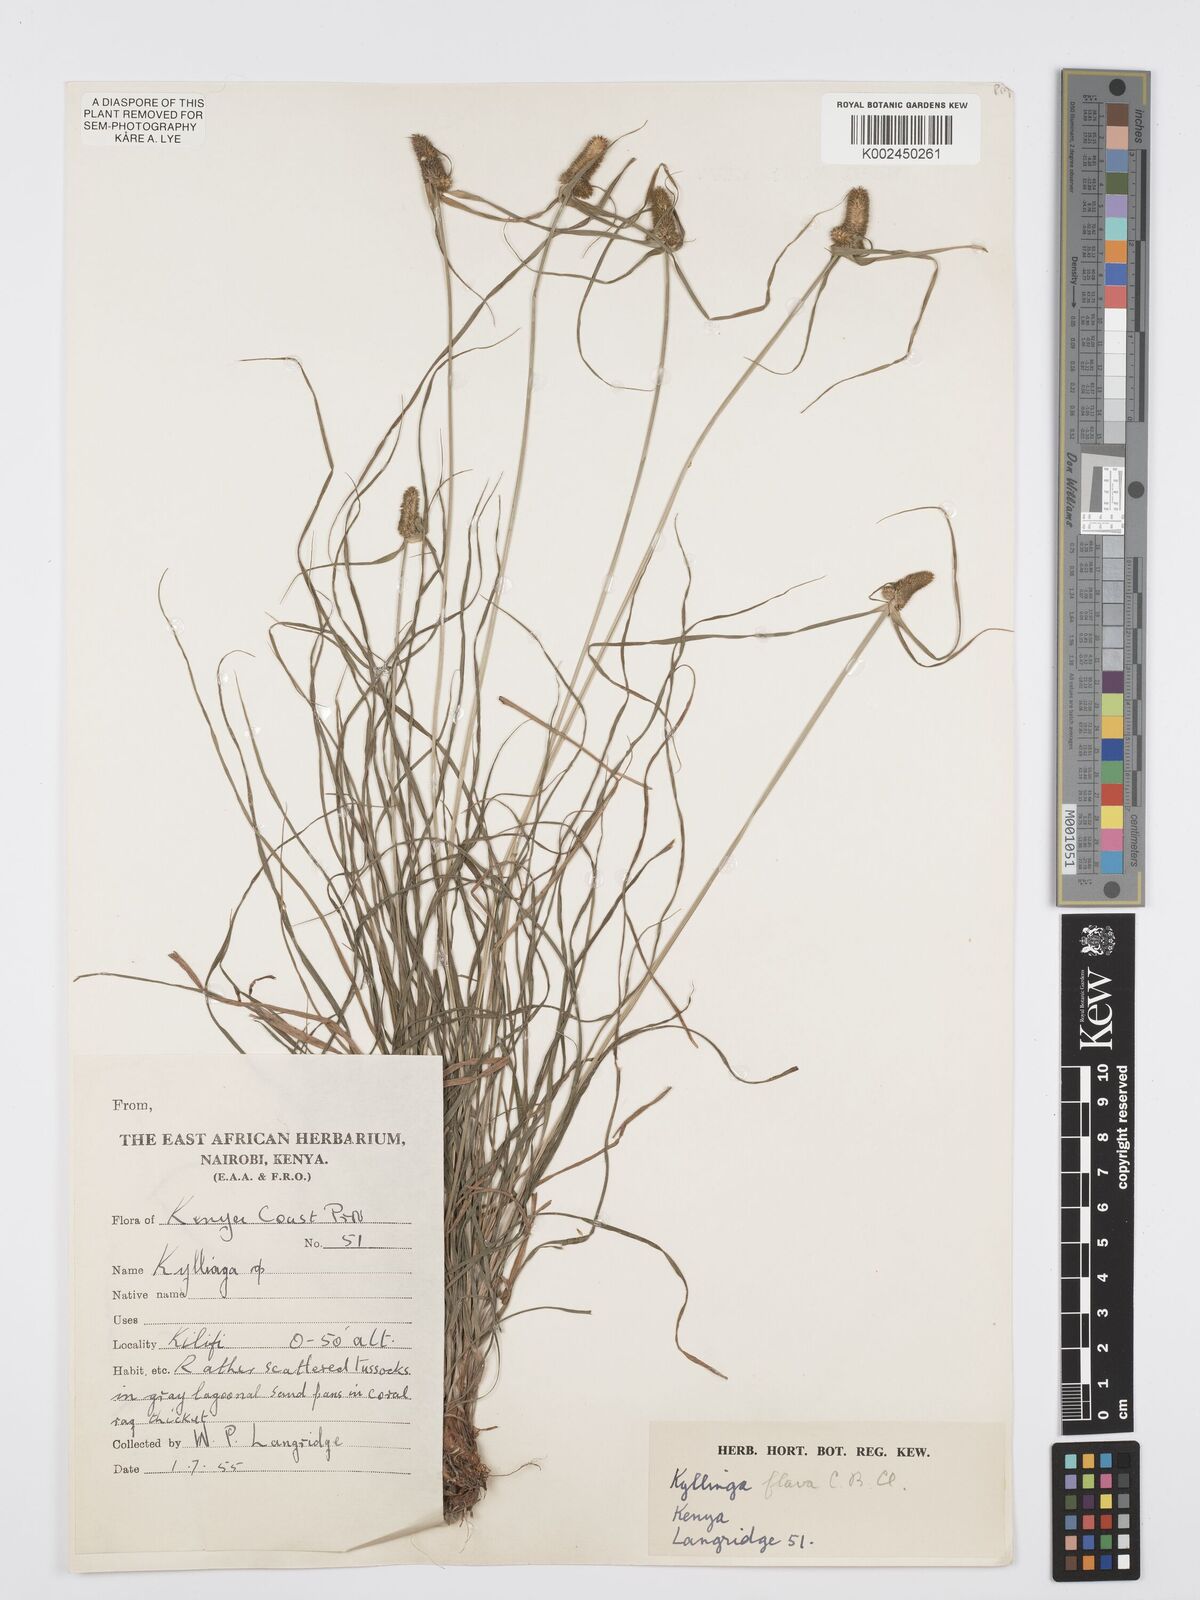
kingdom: Plantae
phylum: Tracheophyta
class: Liliopsida
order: Poales
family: Cyperaceae
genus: Cyperus
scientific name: Cyperus
